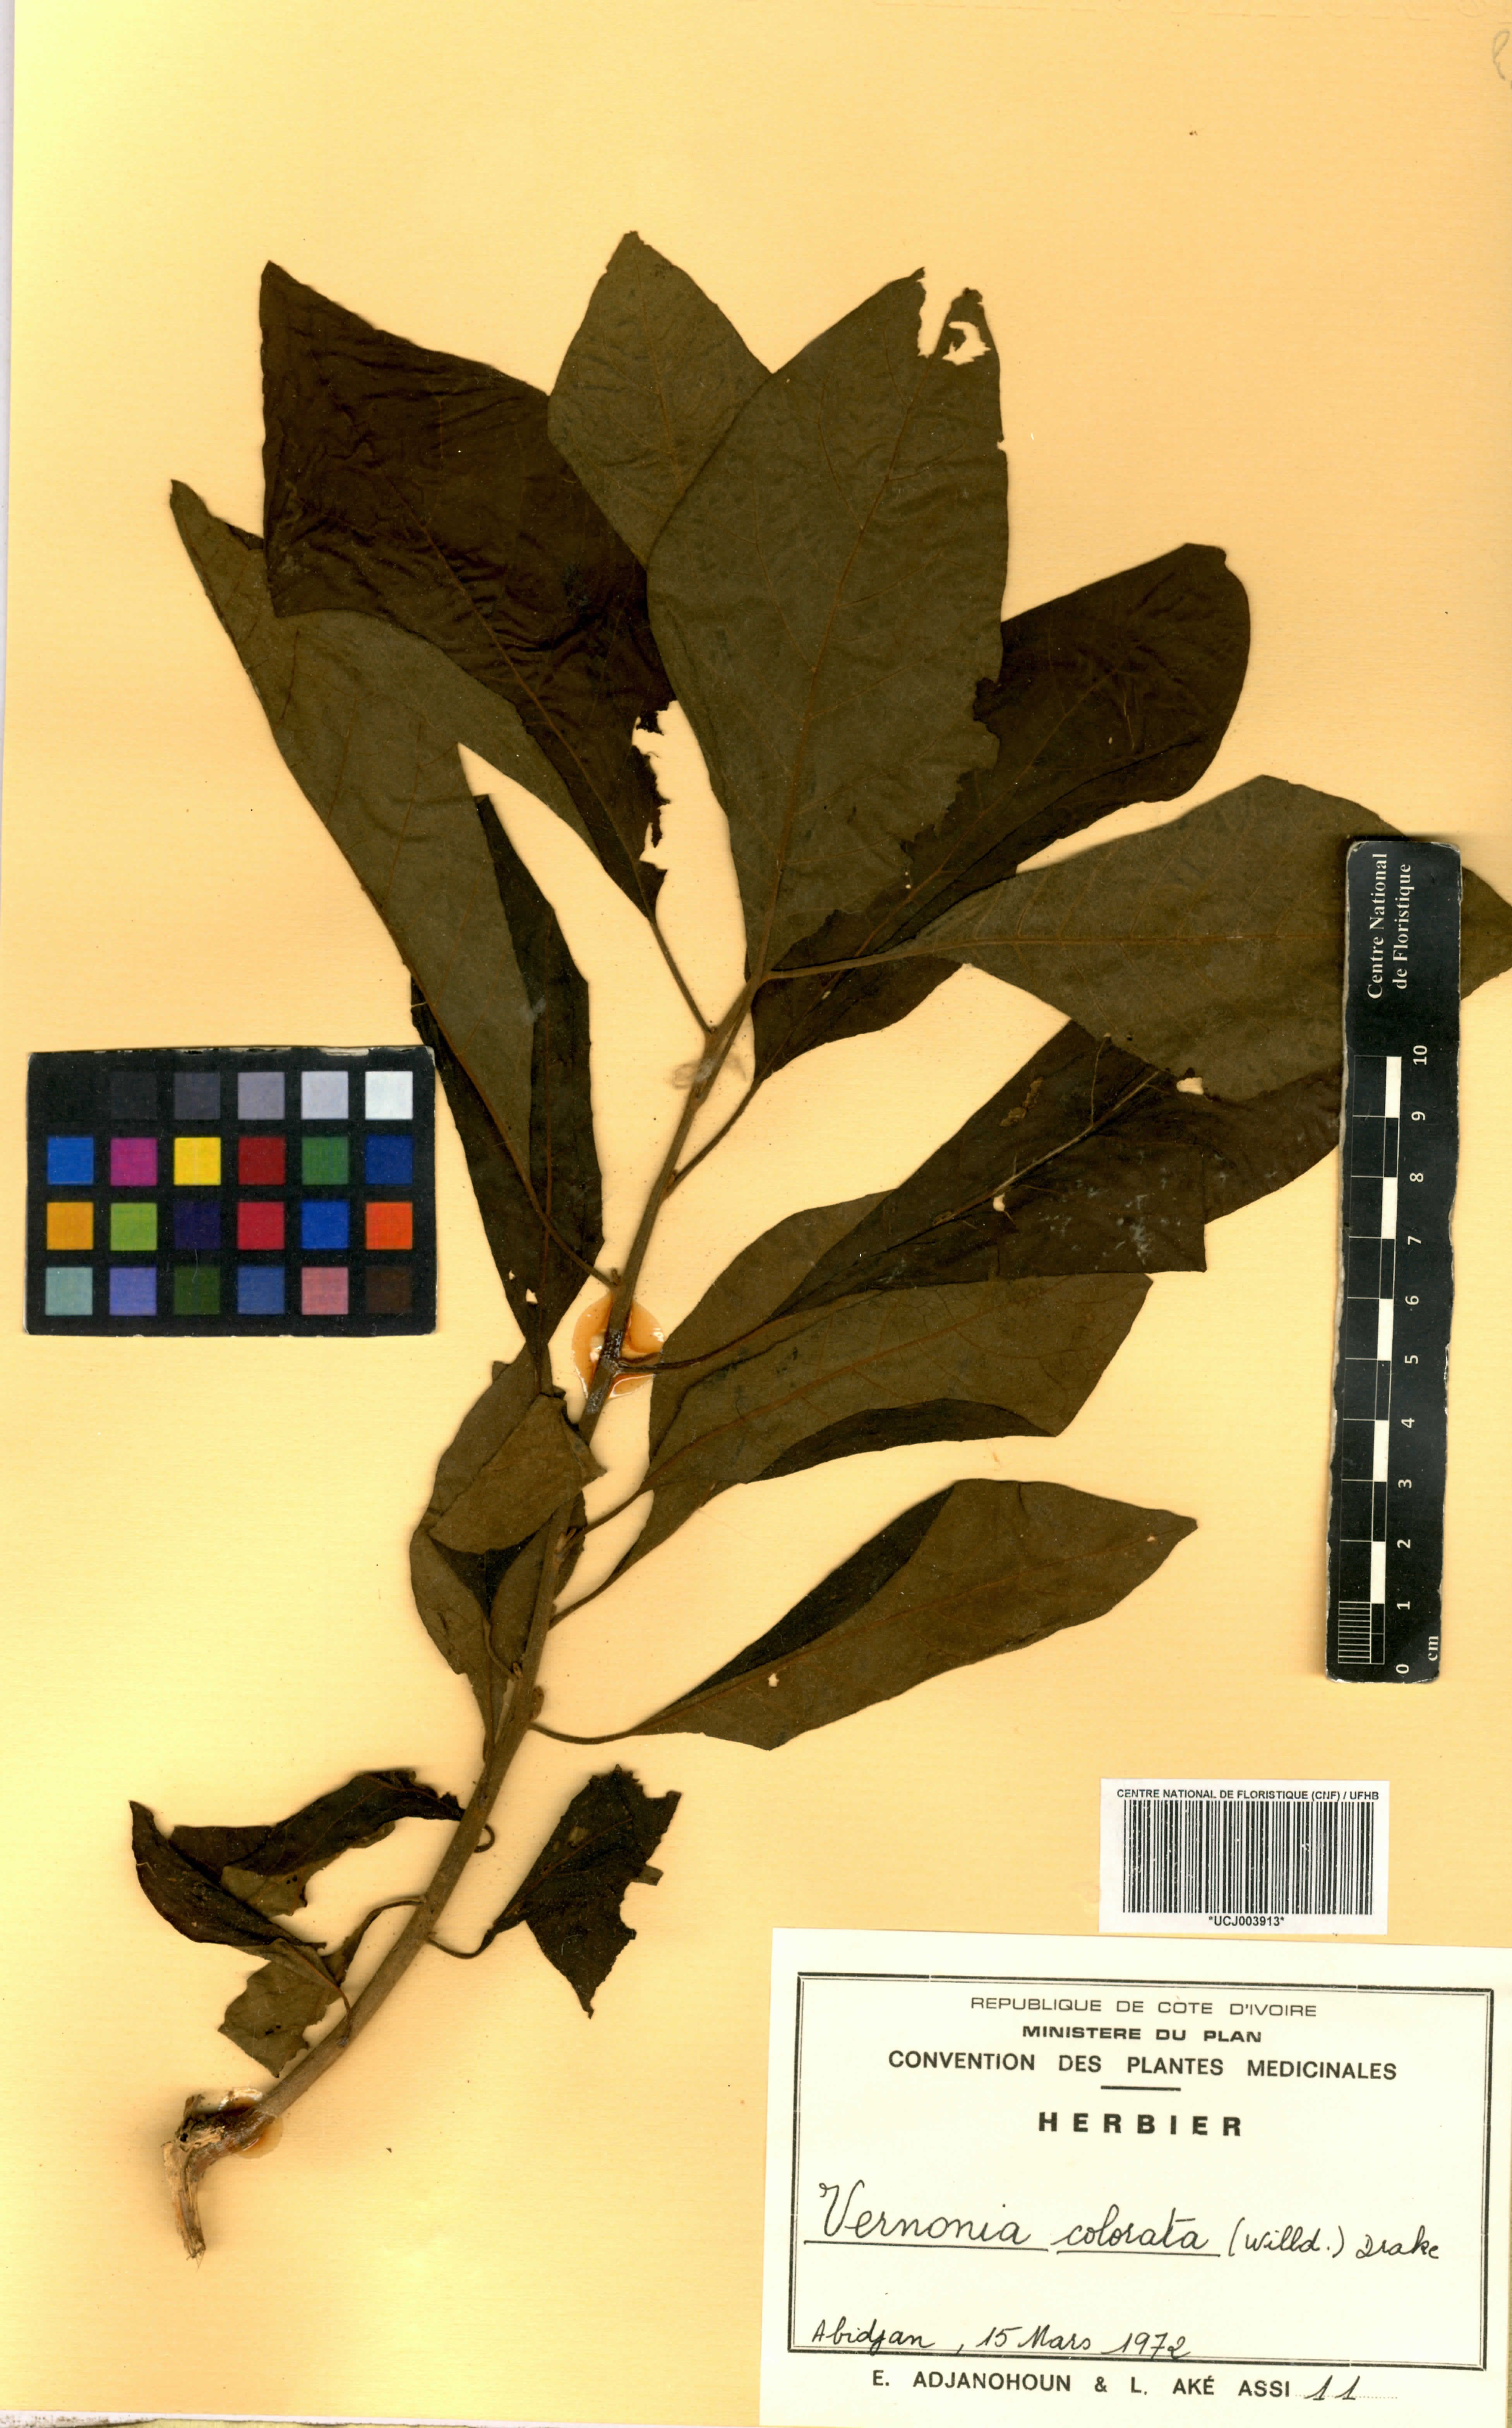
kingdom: Plantae
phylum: Tracheophyta
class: Magnoliopsida
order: Asterales
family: Asteraceae
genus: Vernonia
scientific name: Vernonia colorata
